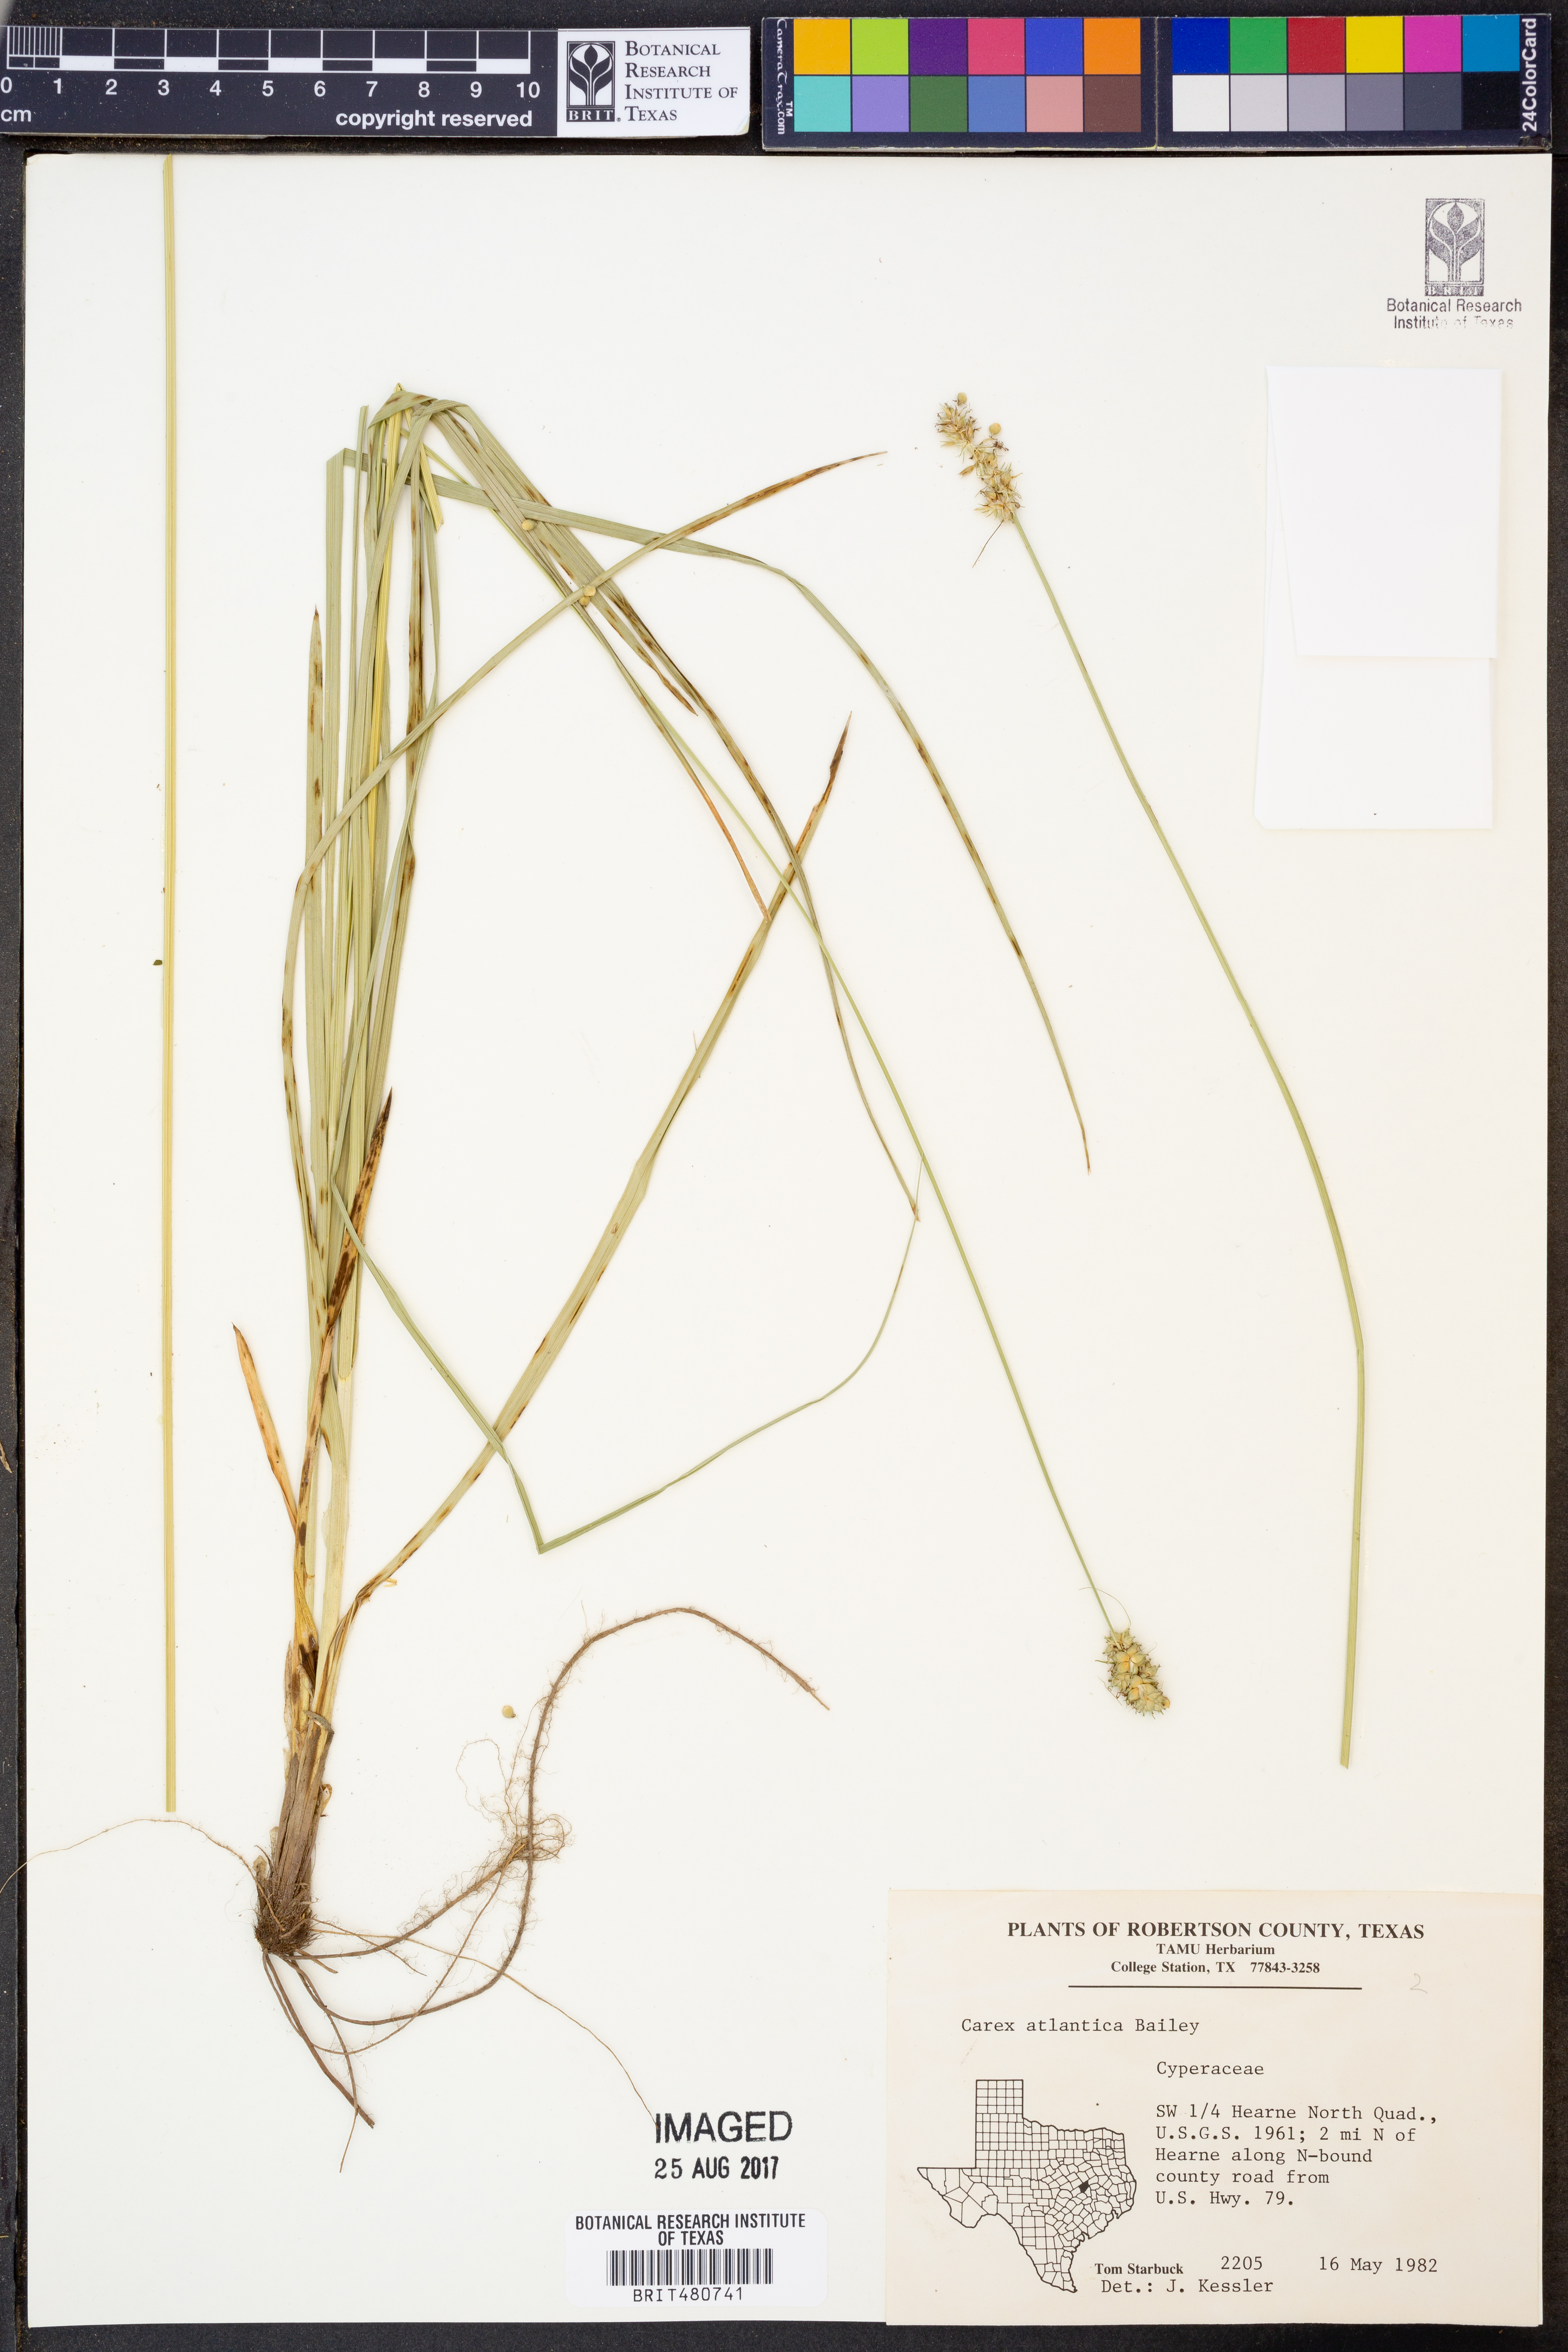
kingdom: Plantae
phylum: Tracheophyta
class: Liliopsida
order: Poales
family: Cyperaceae
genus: Carex
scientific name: Carex atlantica
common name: Atlantic sedge
